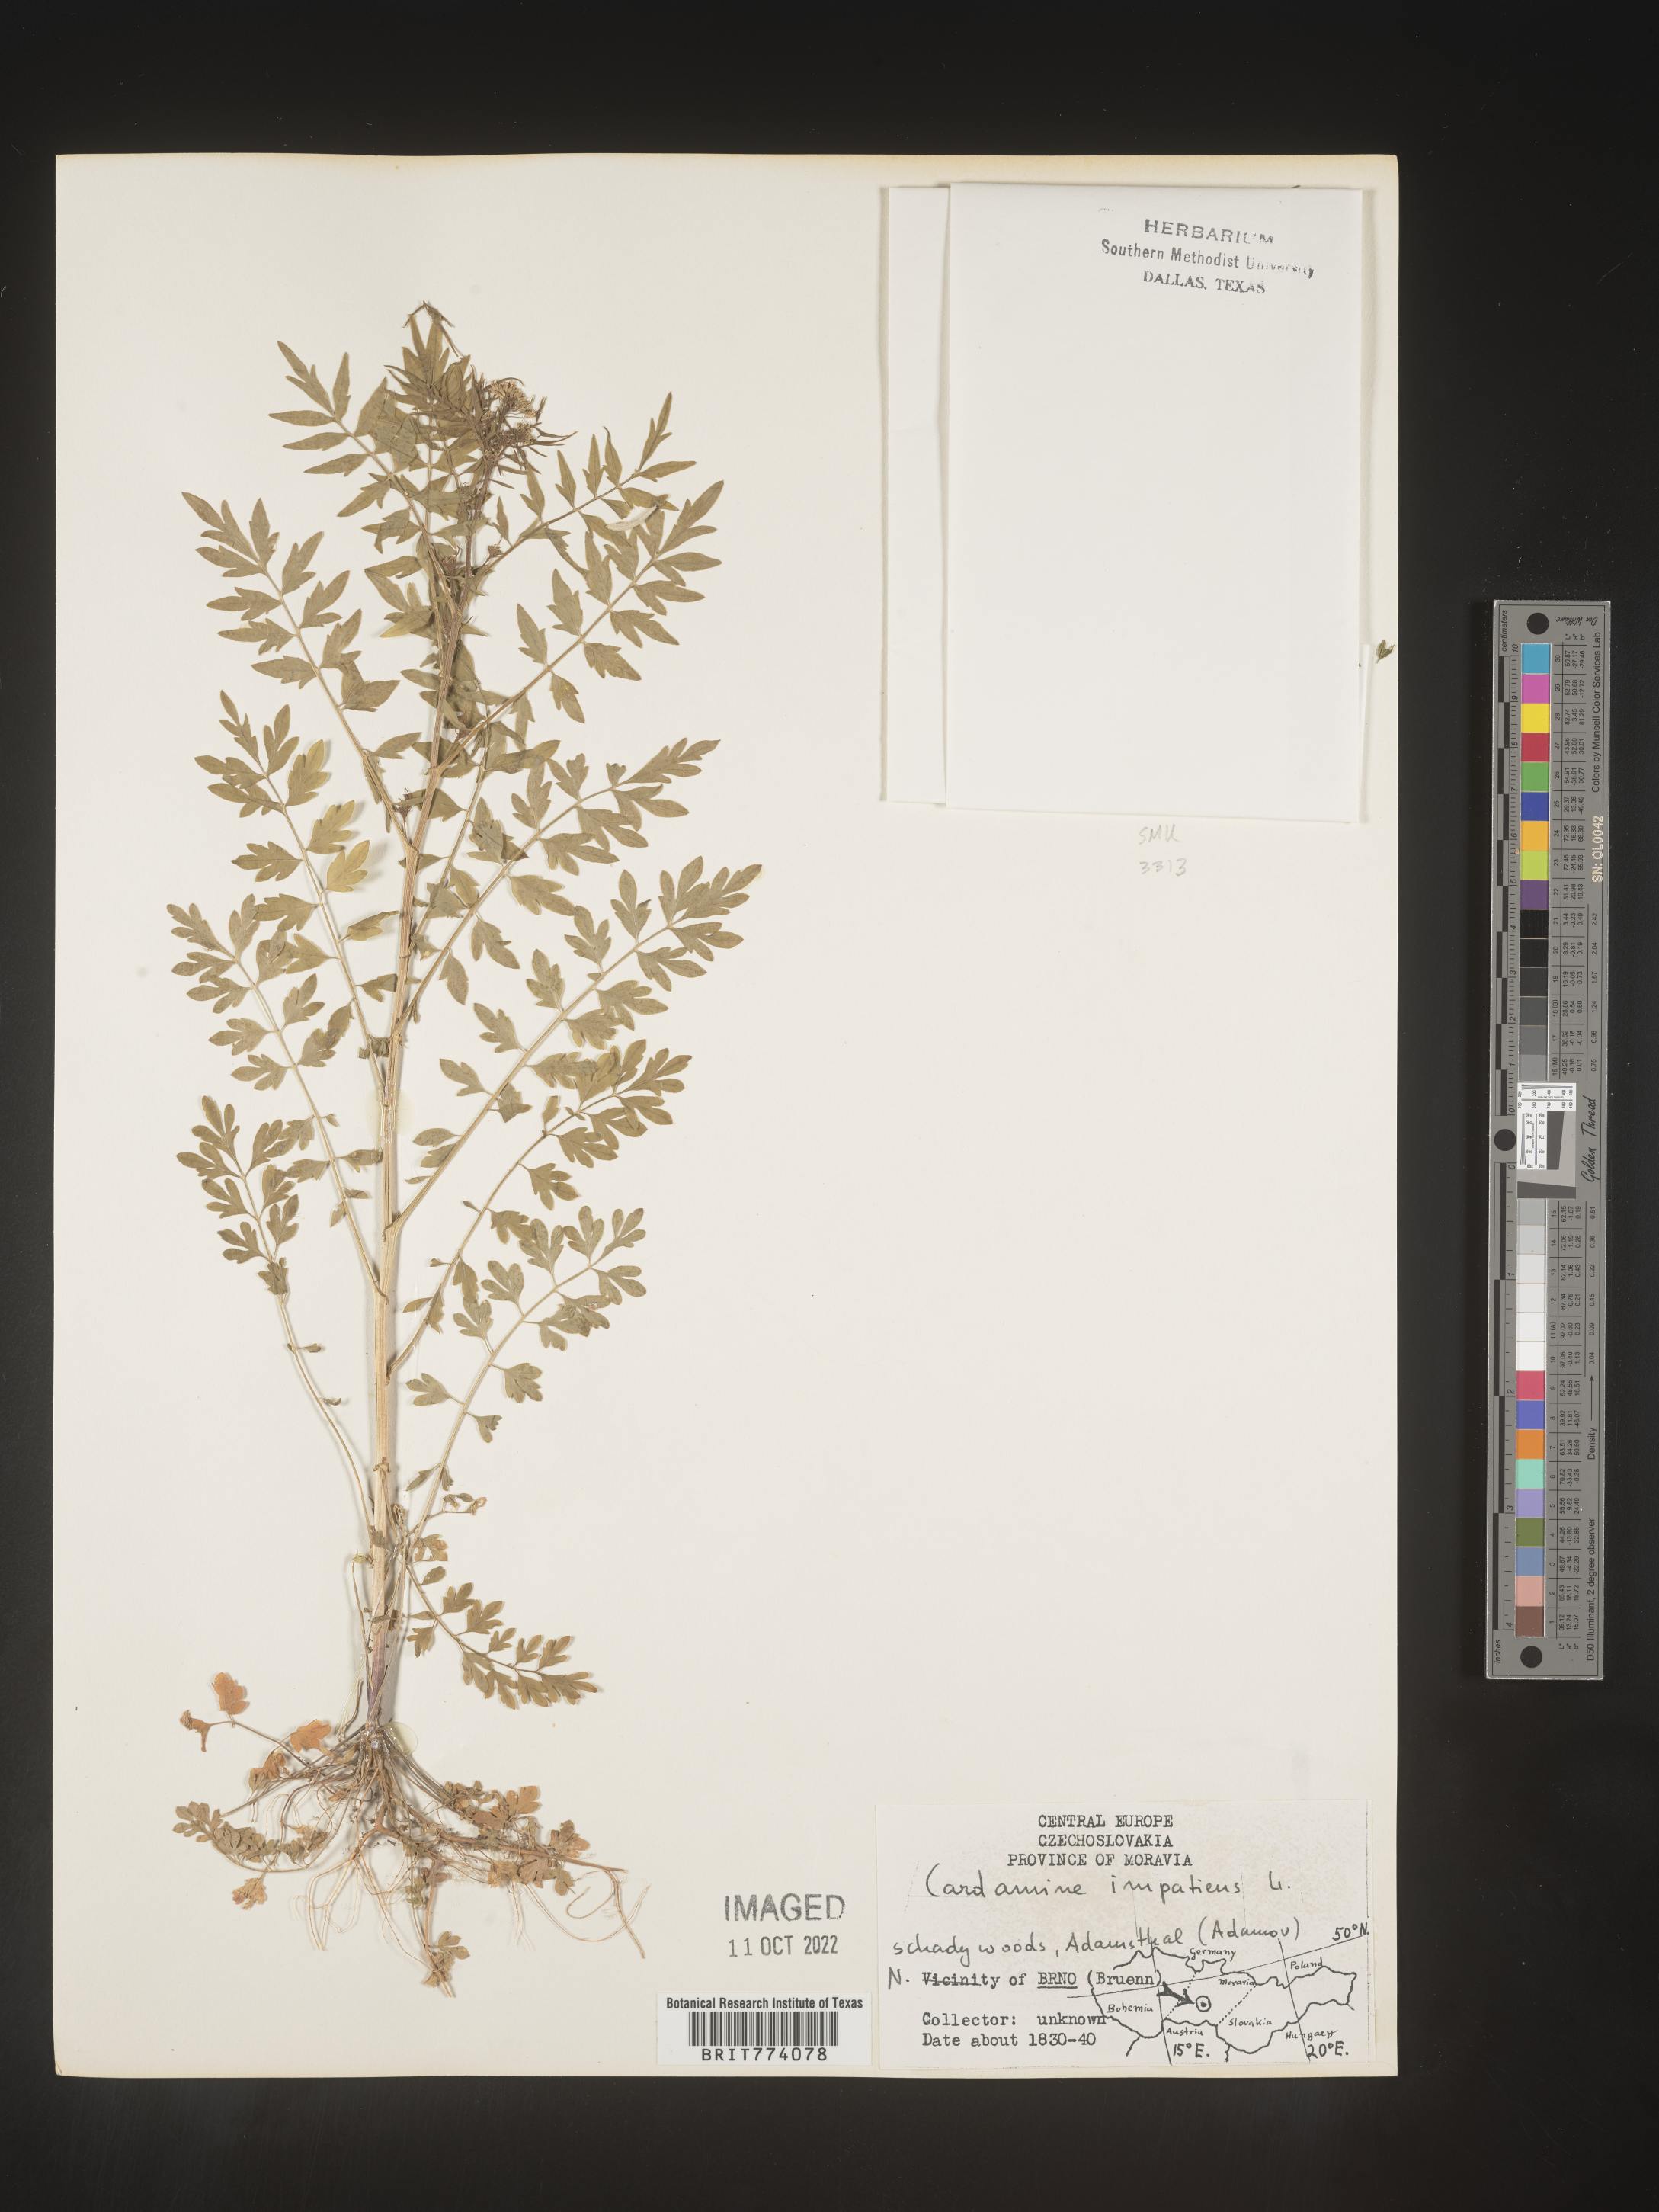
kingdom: Plantae
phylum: Tracheophyta
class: Magnoliopsida
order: Brassicales
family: Brassicaceae
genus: Cardamine
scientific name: Cardamine
